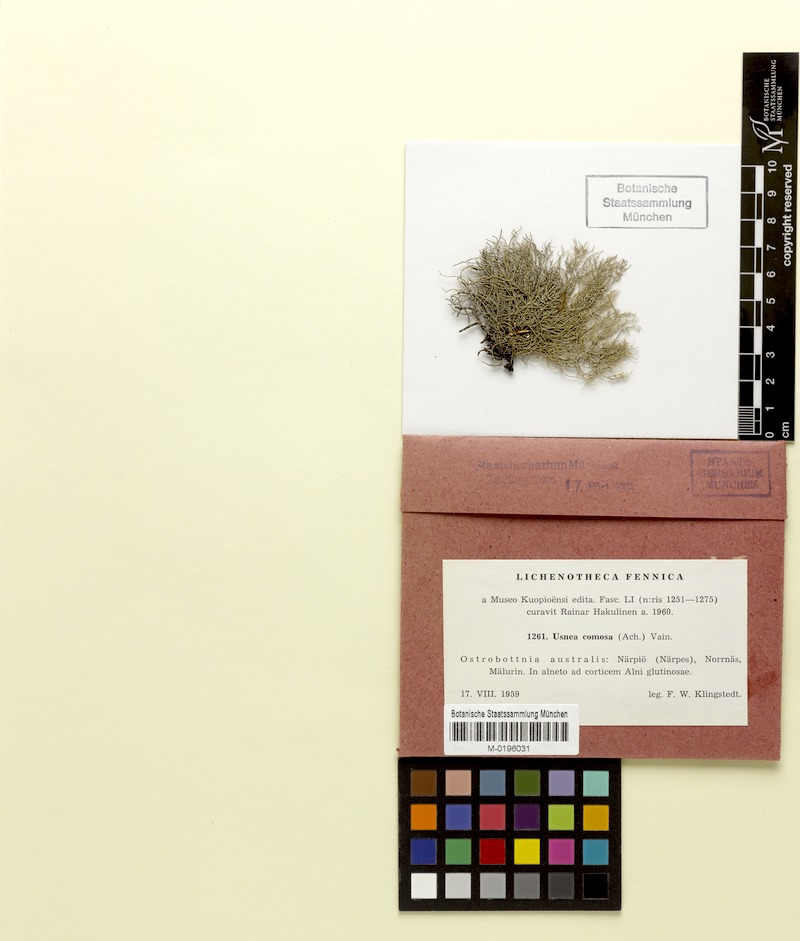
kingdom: Fungi
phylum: Ascomycota
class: Lecanoromycetes
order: Lecanorales
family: Parmeliaceae
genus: Usnea
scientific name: Usnea subfloridana
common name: Boreal beard lichen
